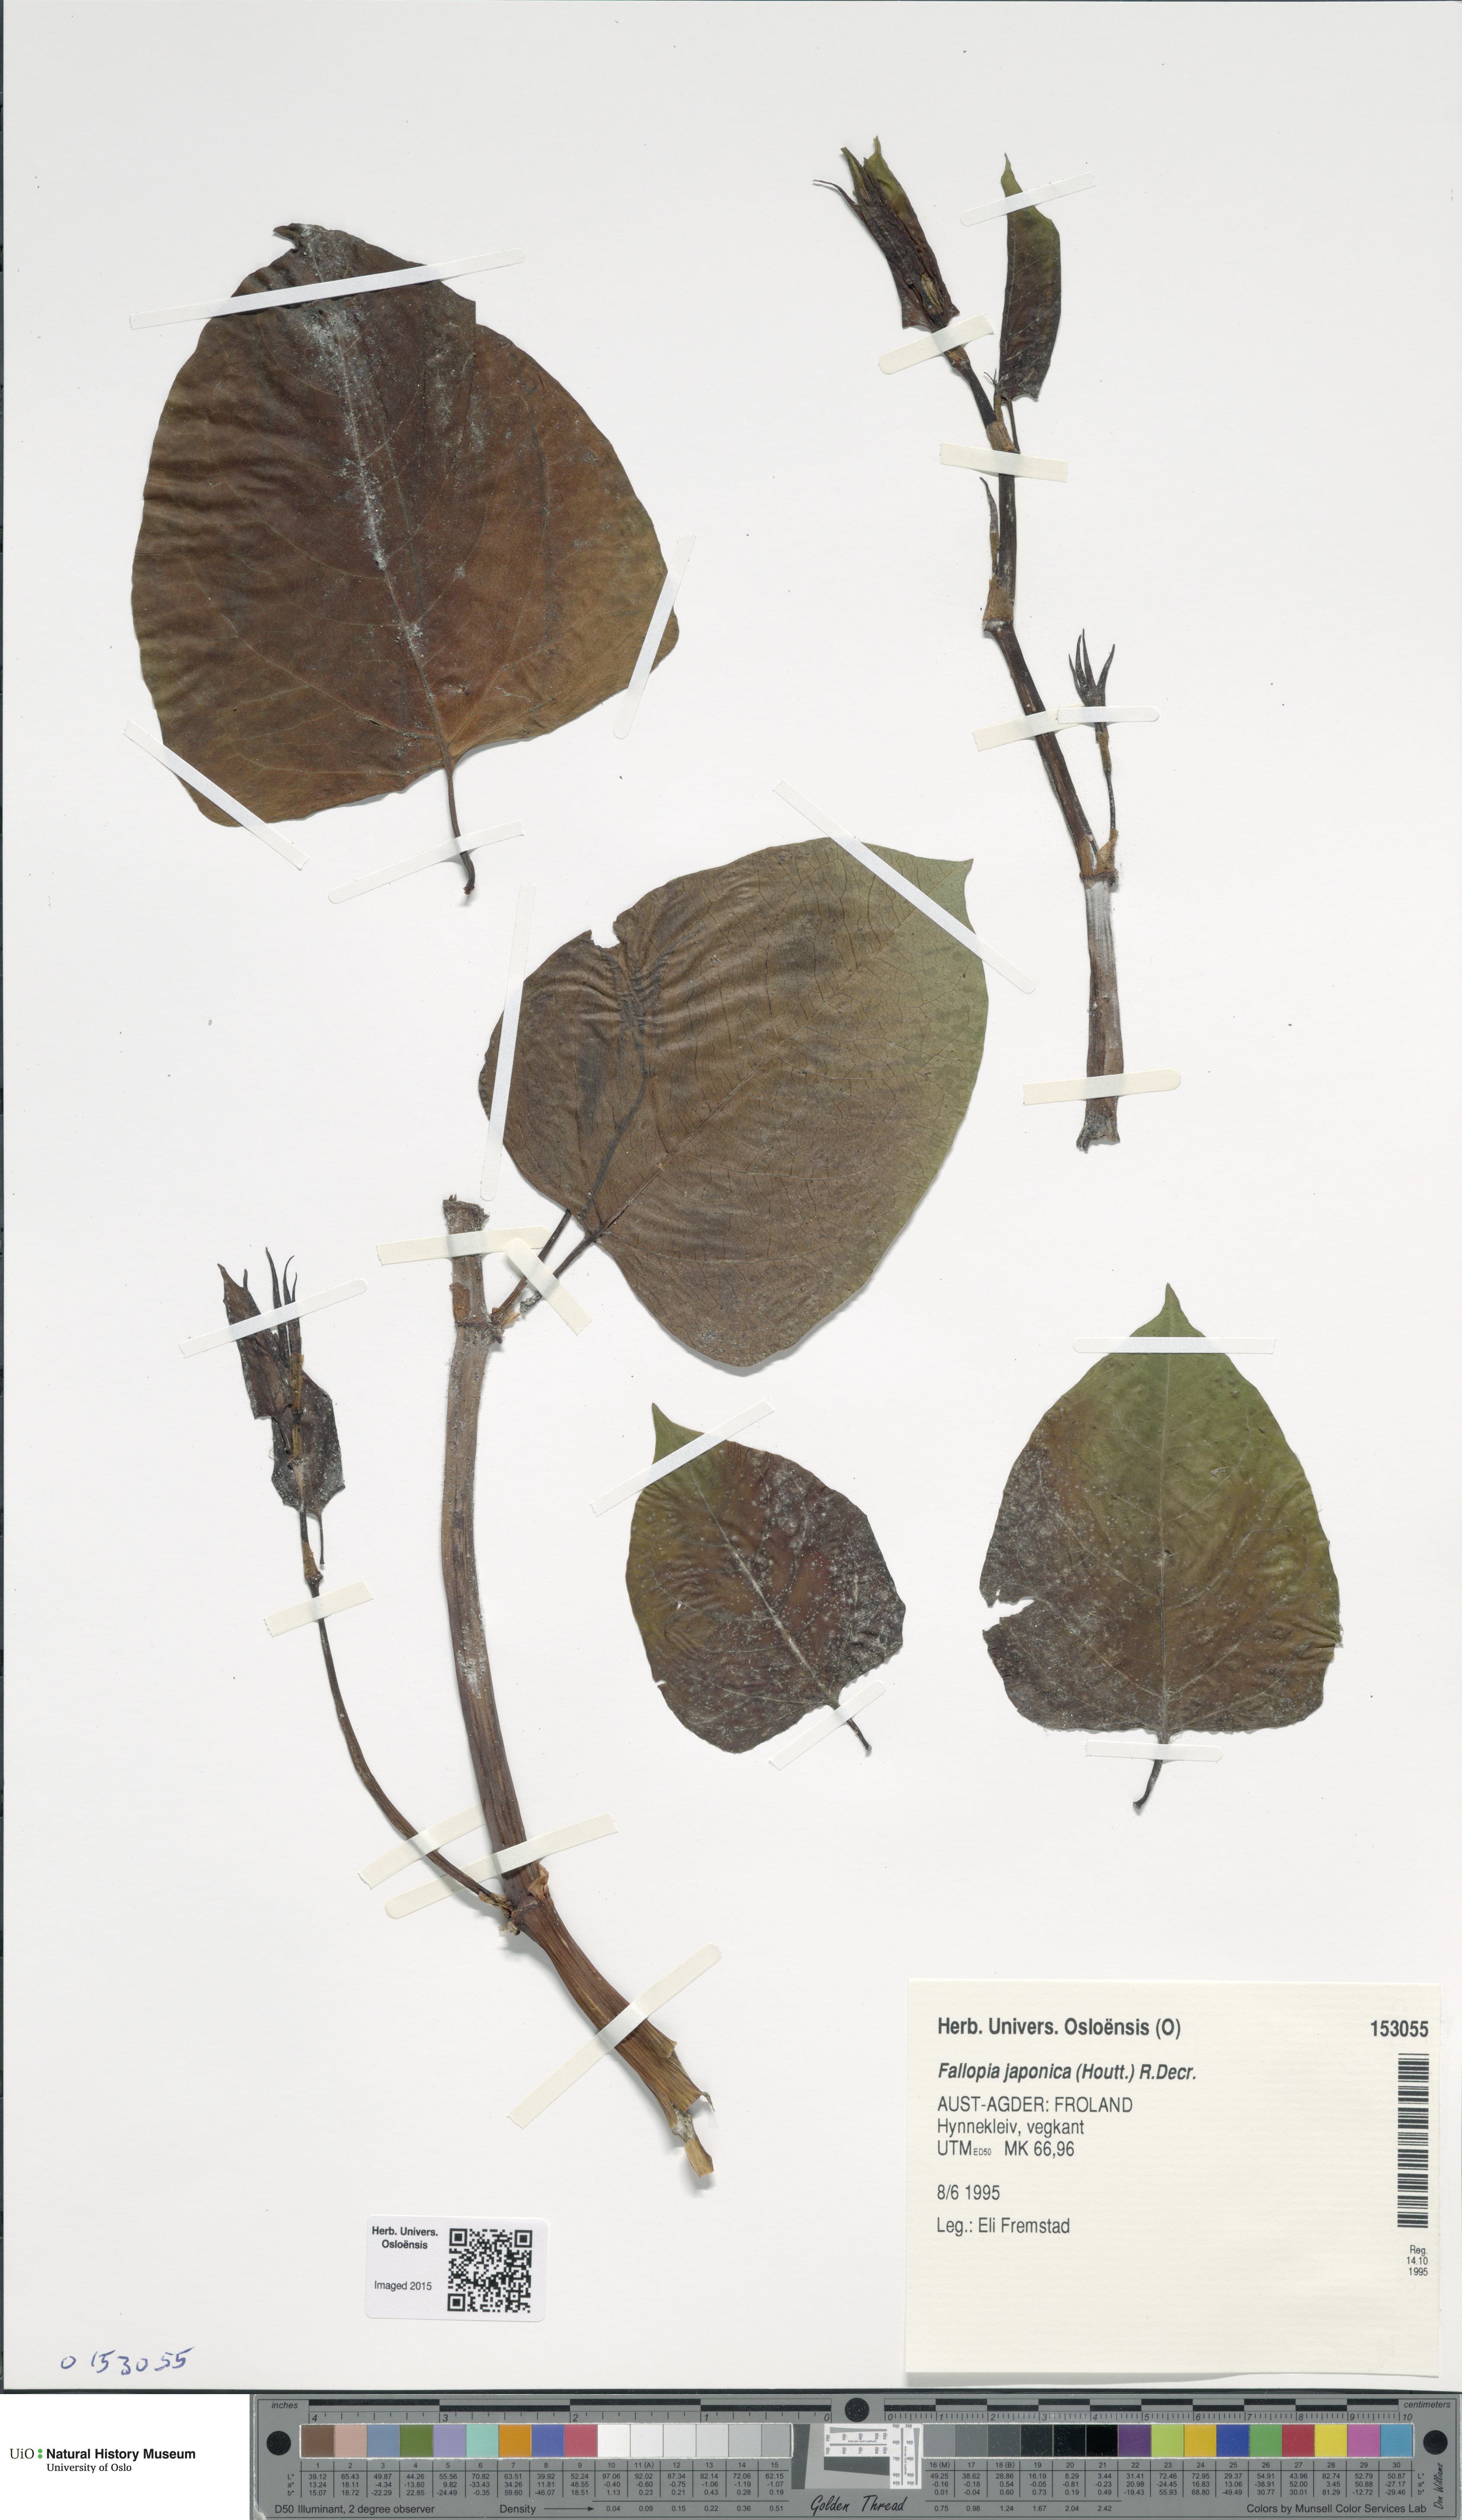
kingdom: Plantae
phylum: Tracheophyta
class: Magnoliopsida
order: Caryophyllales
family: Polygonaceae
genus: Reynoutria
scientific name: Reynoutria japonica
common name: Japanese knotweed
